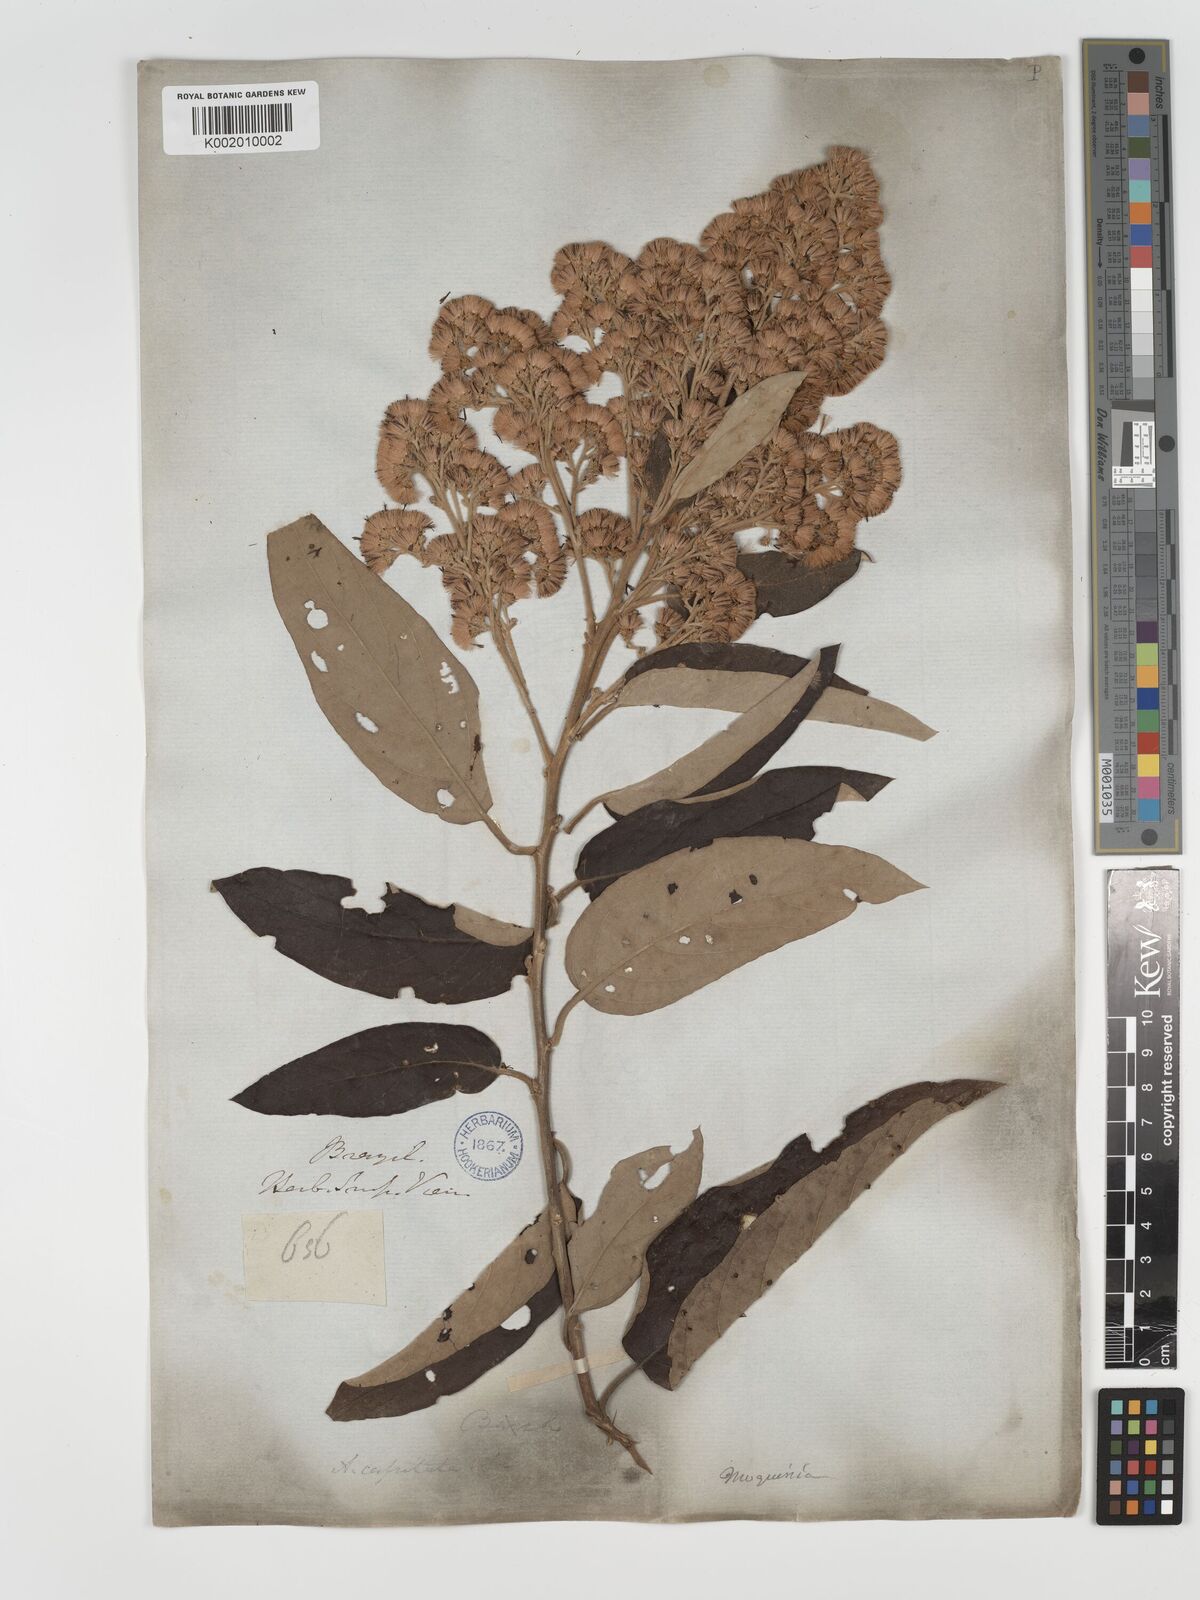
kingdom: Plantae
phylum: Tracheophyta
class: Magnoliopsida
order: Asterales
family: Asteraceae
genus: Moquiniastrum
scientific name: Moquiniastrum polymorphum
